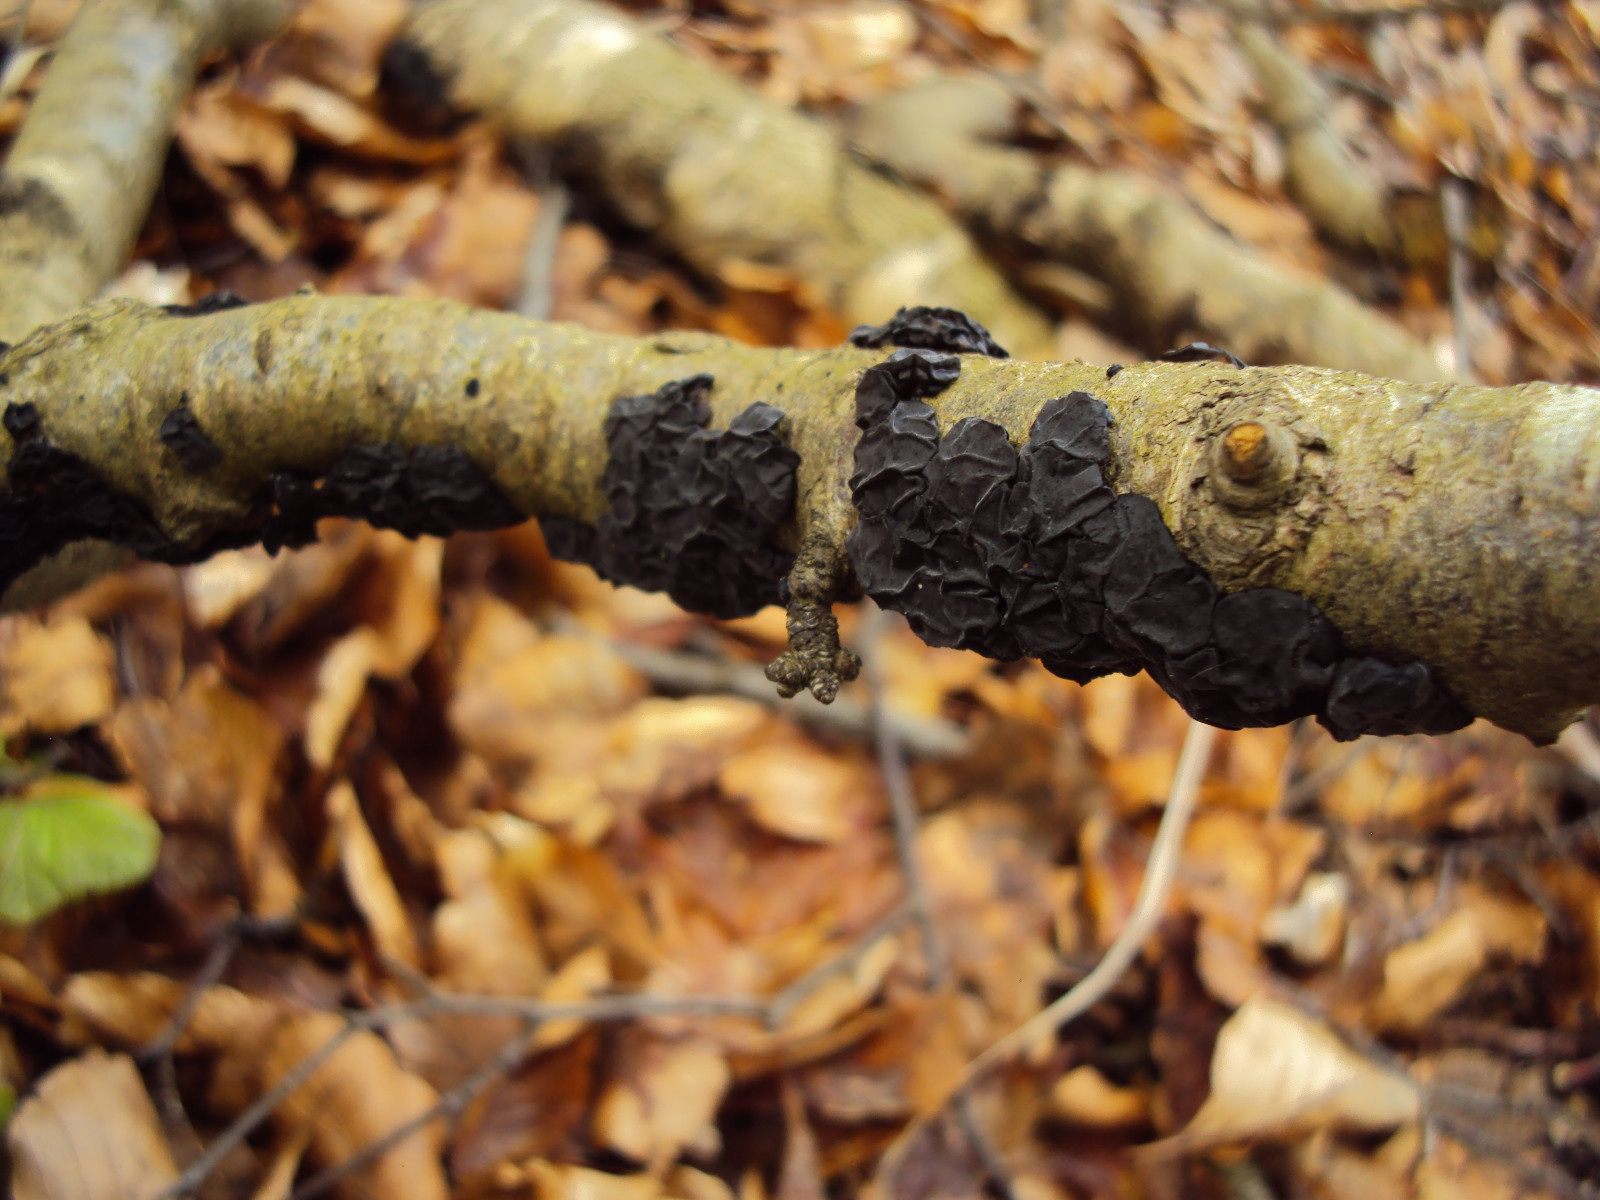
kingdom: Fungi
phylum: Basidiomycota
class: Agaricomycetes
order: Auriculariales
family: Auriculariaceae
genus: Exidia
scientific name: Exidia nigricans
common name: almindelig bævretop
